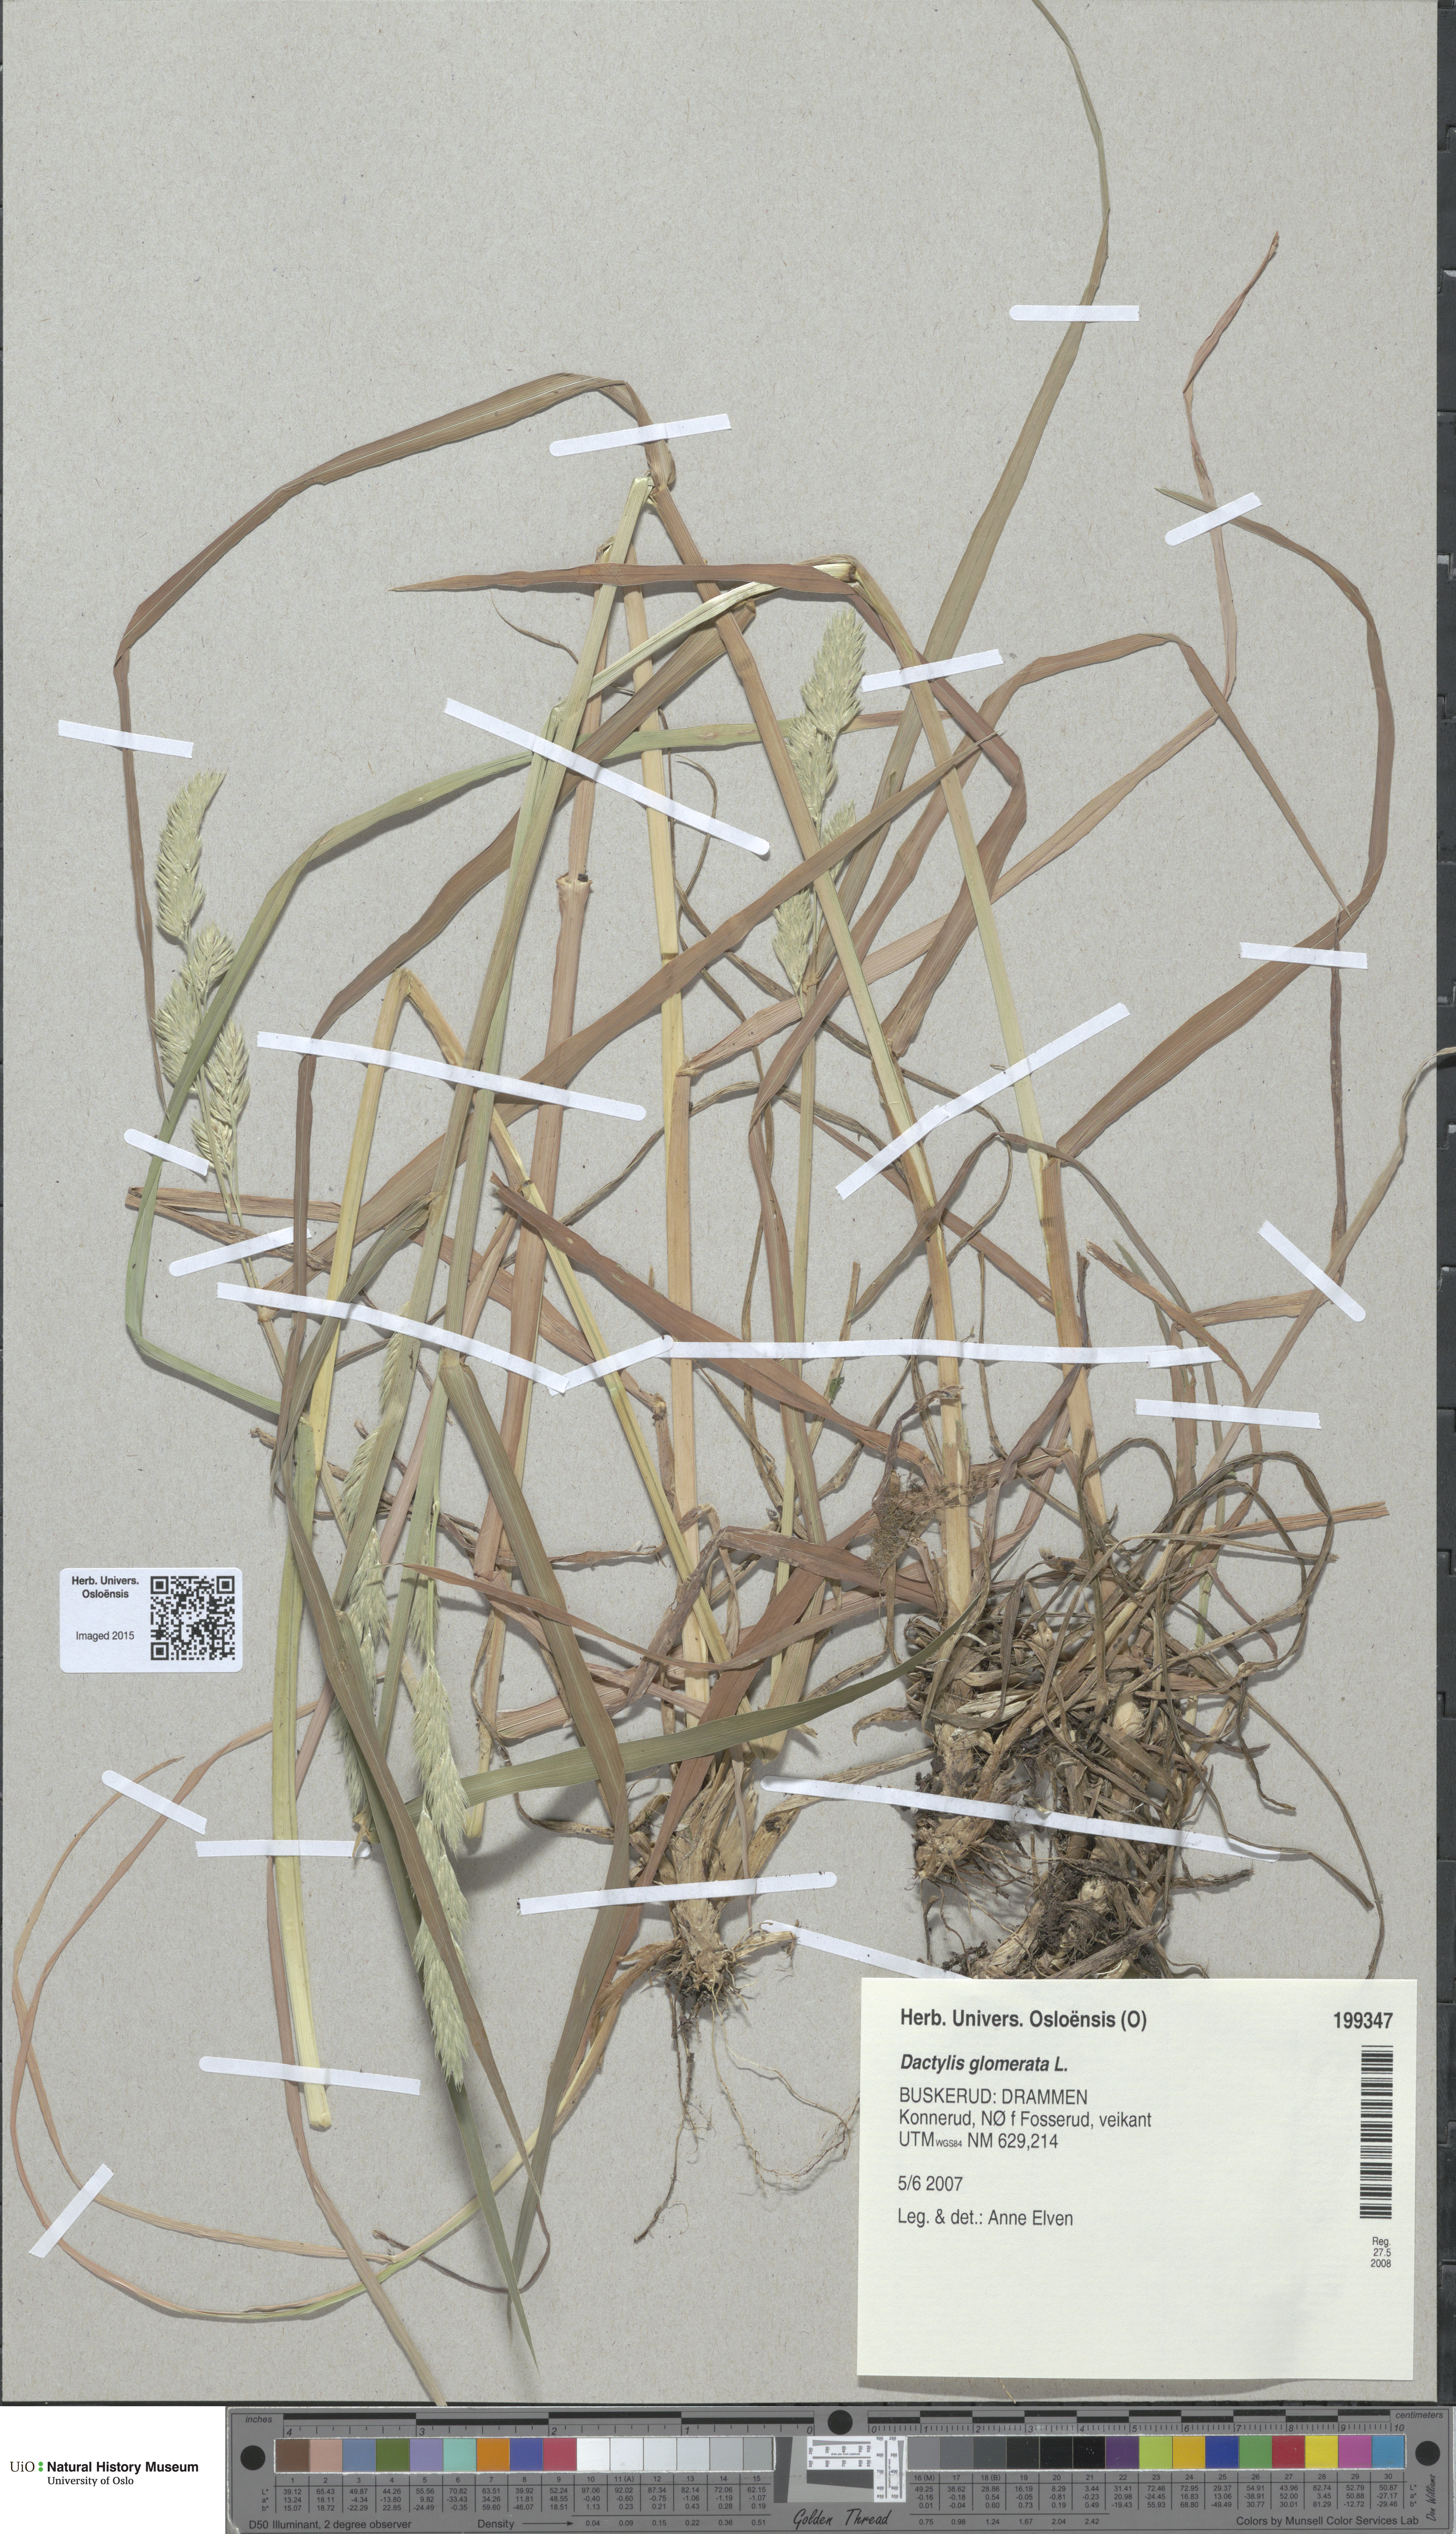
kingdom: Plantae
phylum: Tracheophyta
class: Liliopsida
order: Poales
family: Poaceae
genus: Dactylis
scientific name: Dactylis glomerata
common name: Orchardgrass
